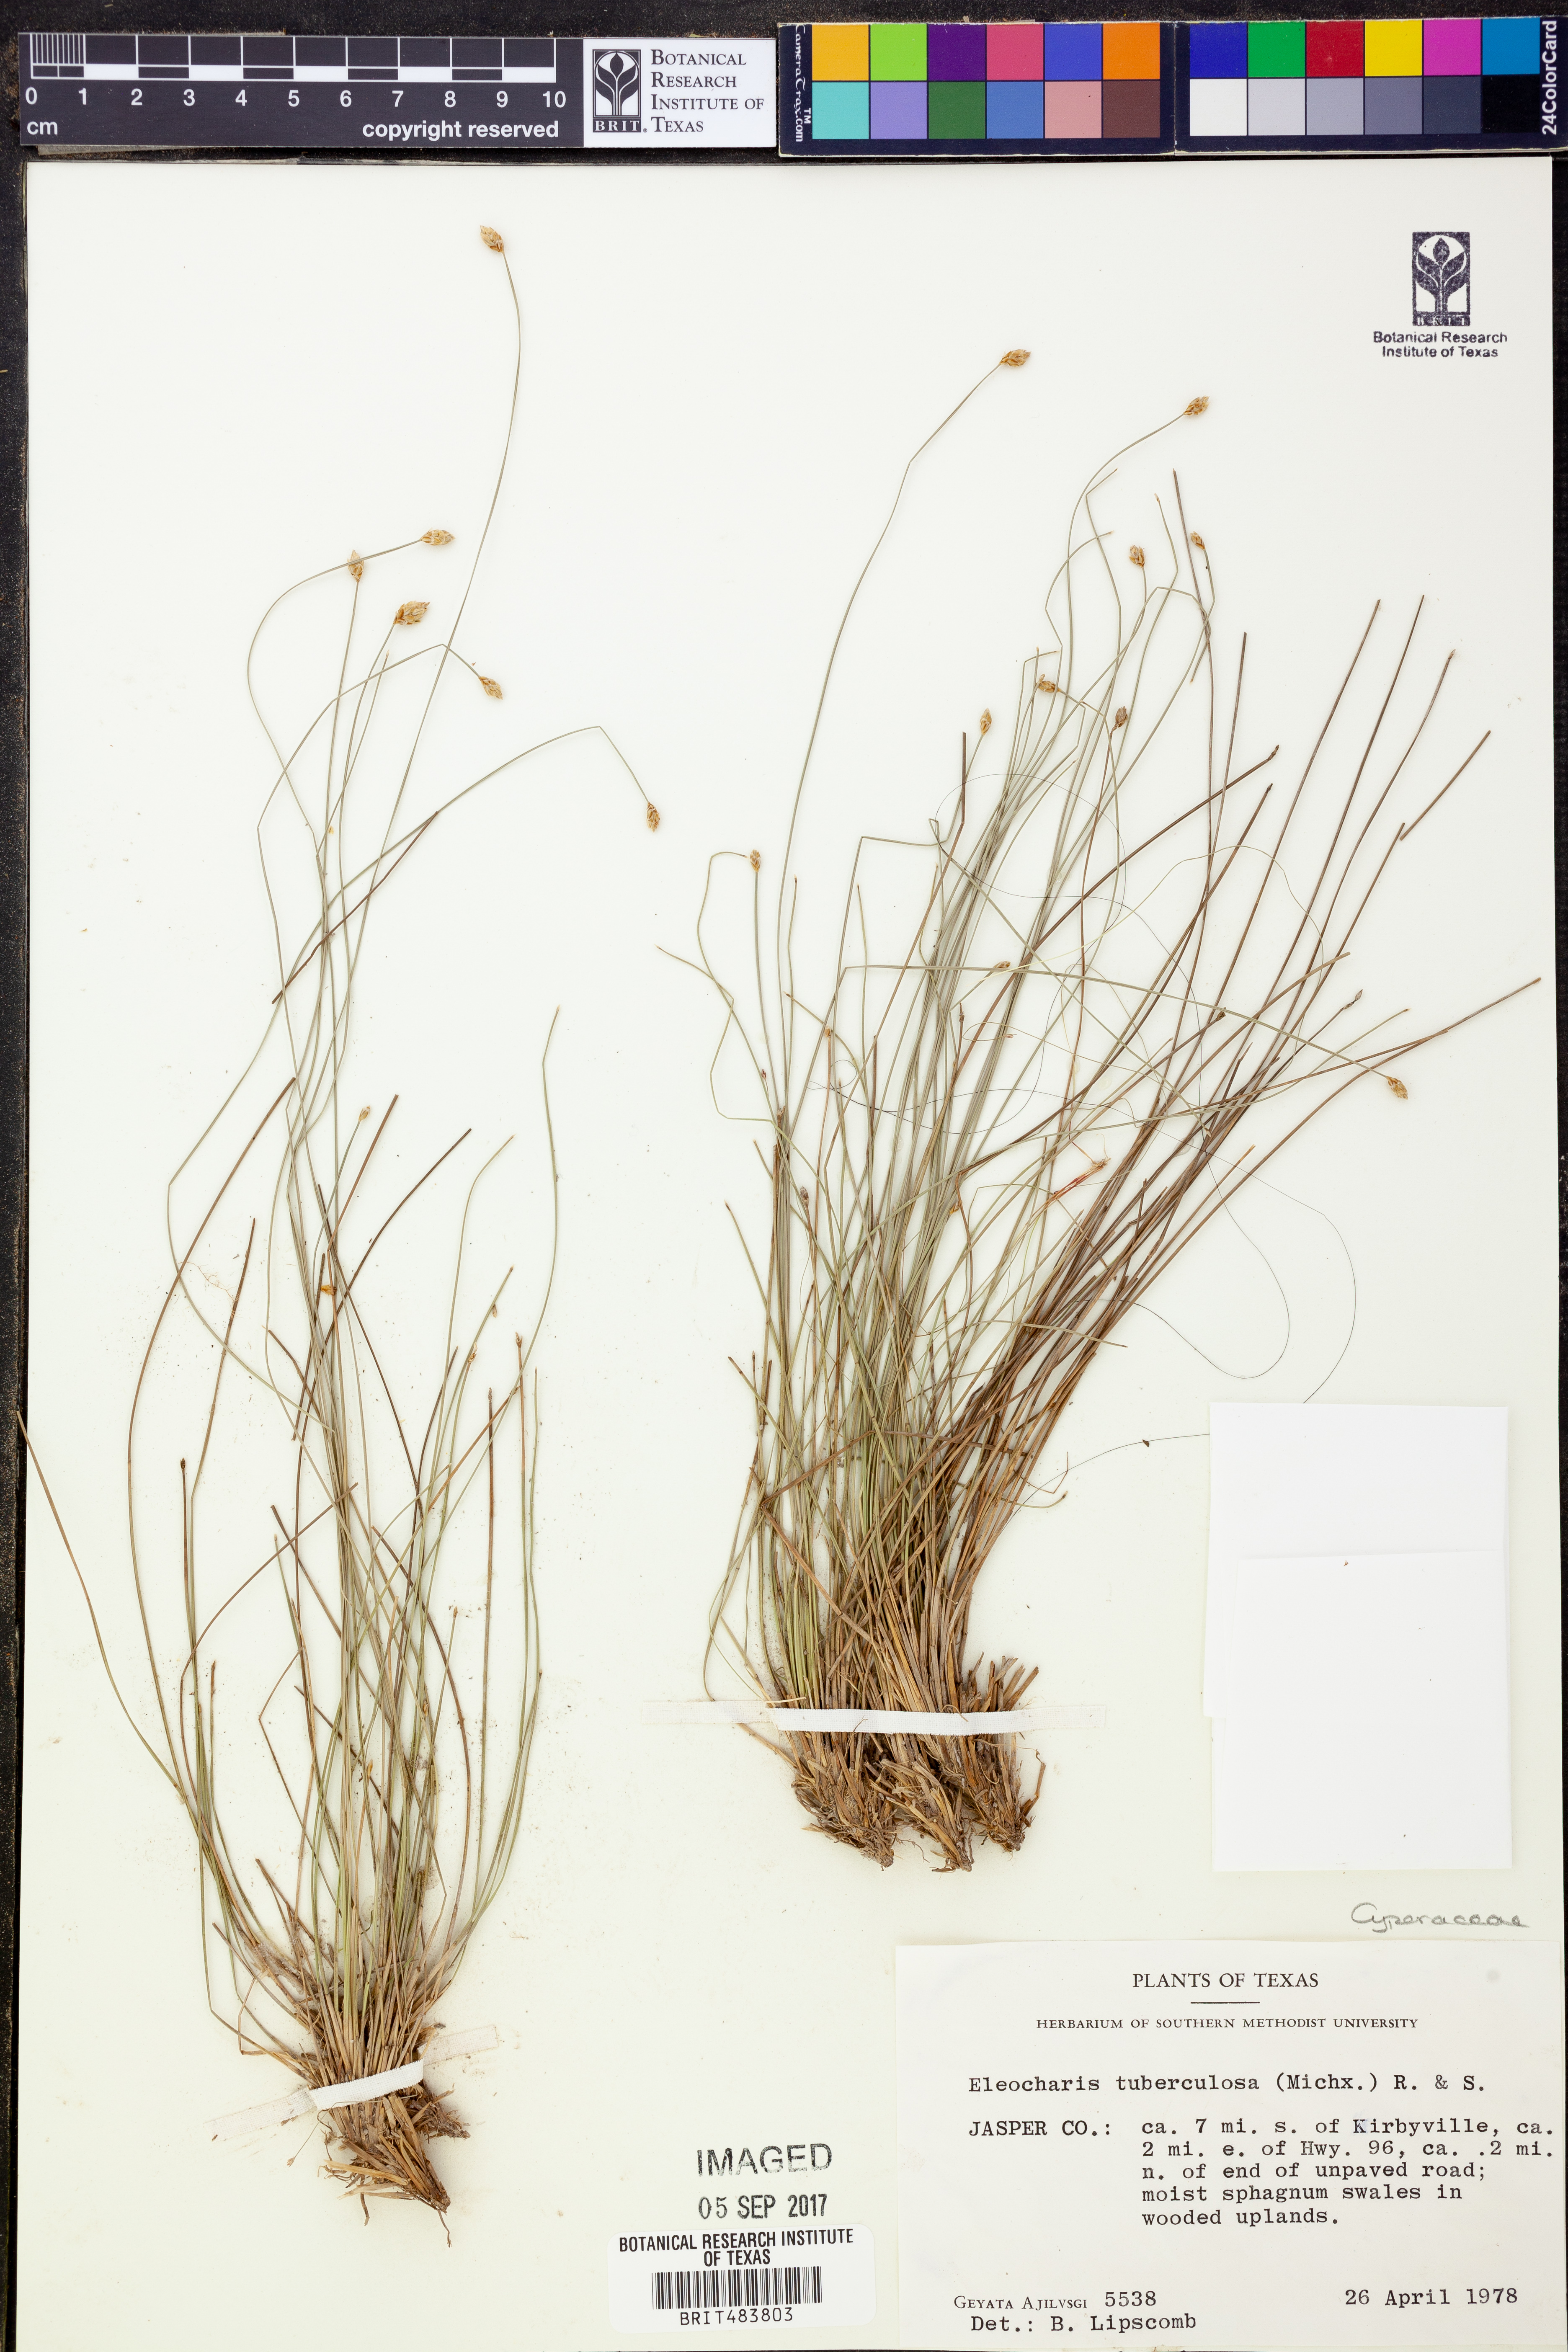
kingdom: Plantae
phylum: Tracheophyta
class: Liliopsida
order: Poales
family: Cyperaceae
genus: Eleocharis
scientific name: Eleocharis tuberculosa
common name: Cone-cup spikerush
